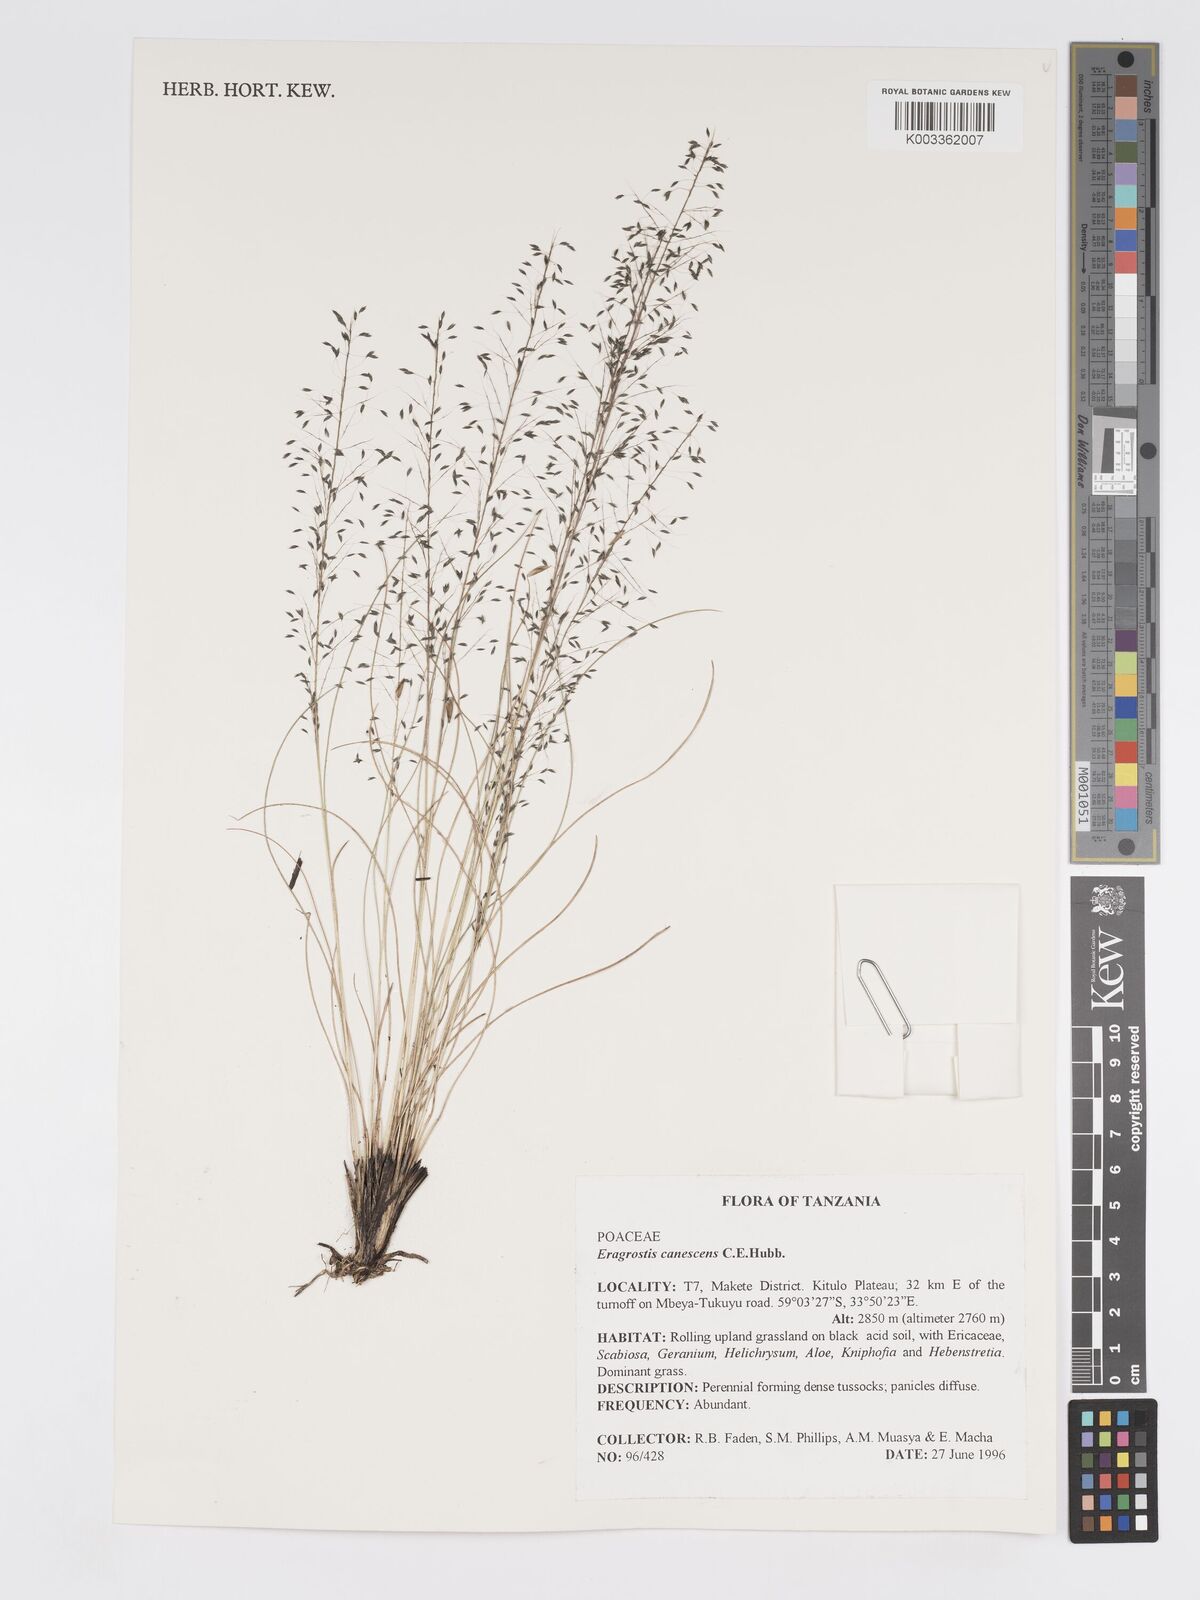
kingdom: Plantae
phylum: Tracheophyta
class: Liliopsida
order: Poales
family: Poaceae
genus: Eragrostis
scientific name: Eragrostis canescens
